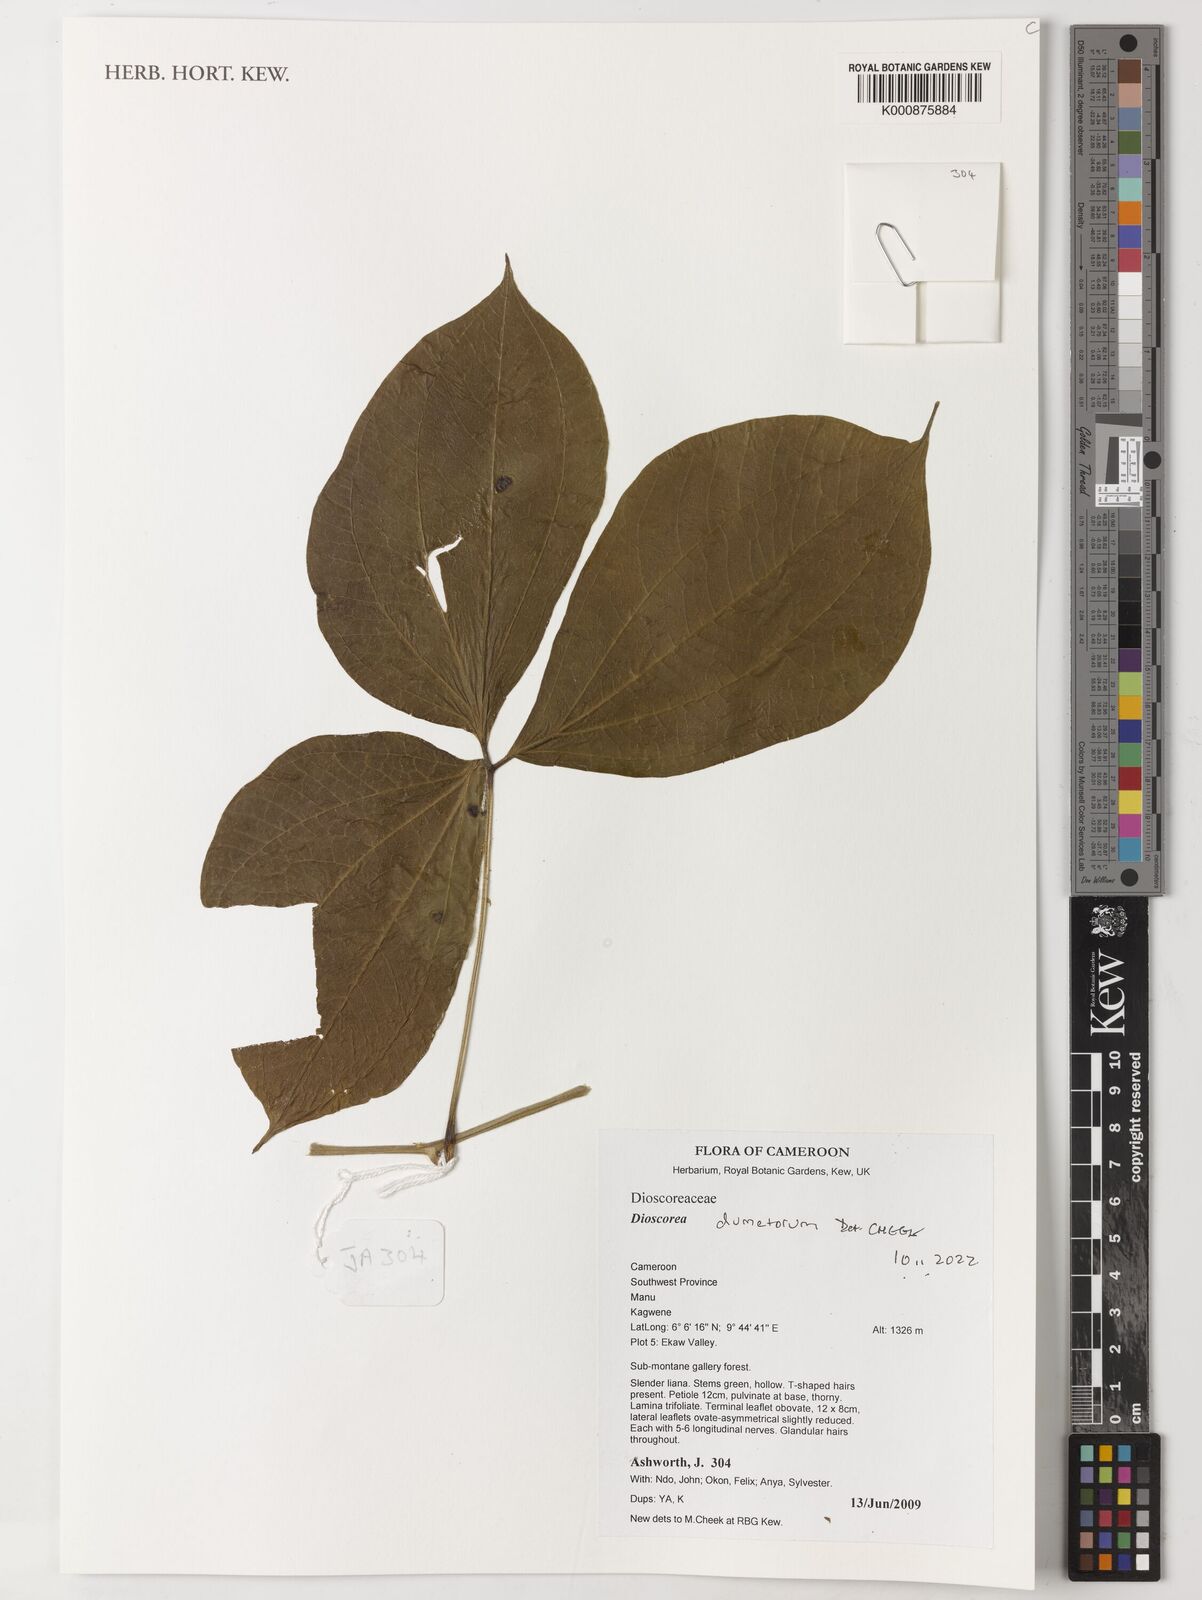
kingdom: Plantae
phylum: Tracheophyta
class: Liliopsida
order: Dioscoreales
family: Dioscoreaceae
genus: Dioscorea
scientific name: Dioscorea dumetorum
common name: African bitter yam
